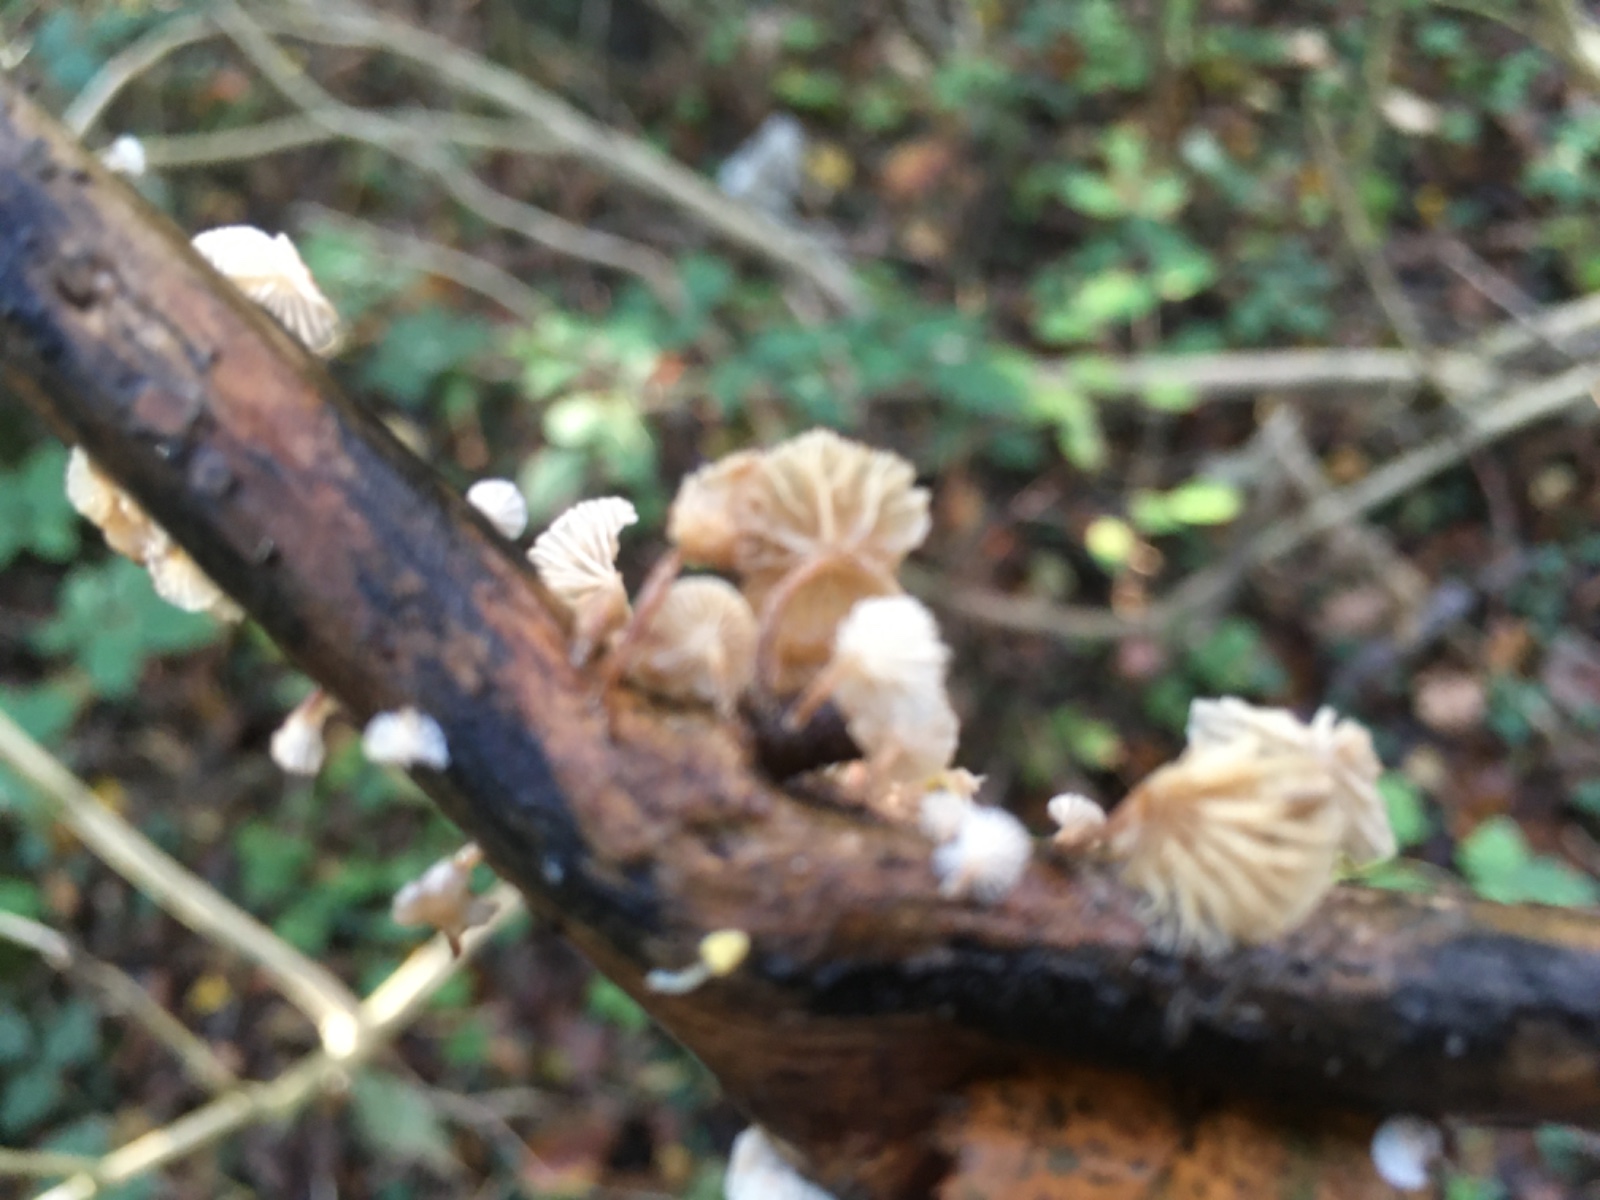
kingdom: Fungi
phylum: Basidiomycota
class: Agaricomycetes
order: Agaricales
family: Omphalotaceae
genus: Collybiopsis
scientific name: Collybiopsis ramealis
